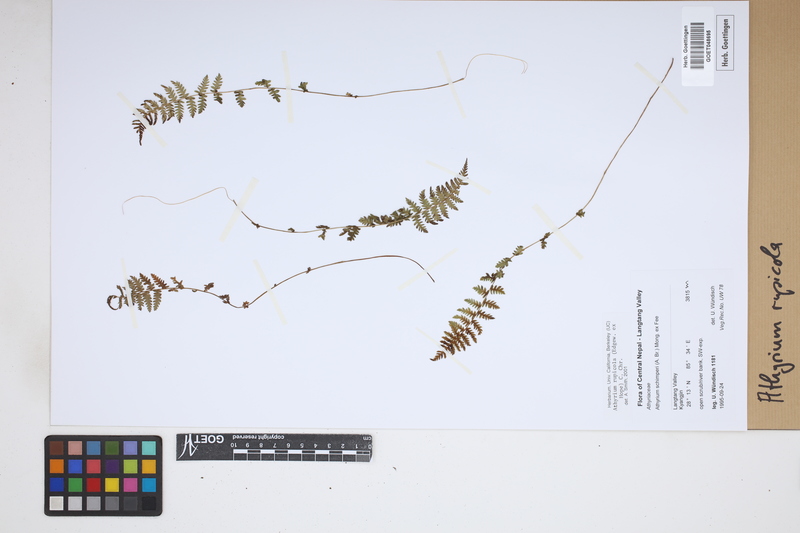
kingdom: Plantae
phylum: Tracheophyta
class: Polypodiopsida
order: Polypodiales
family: Athyriaceae
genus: Athyrium
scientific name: Athyrium rupicola
